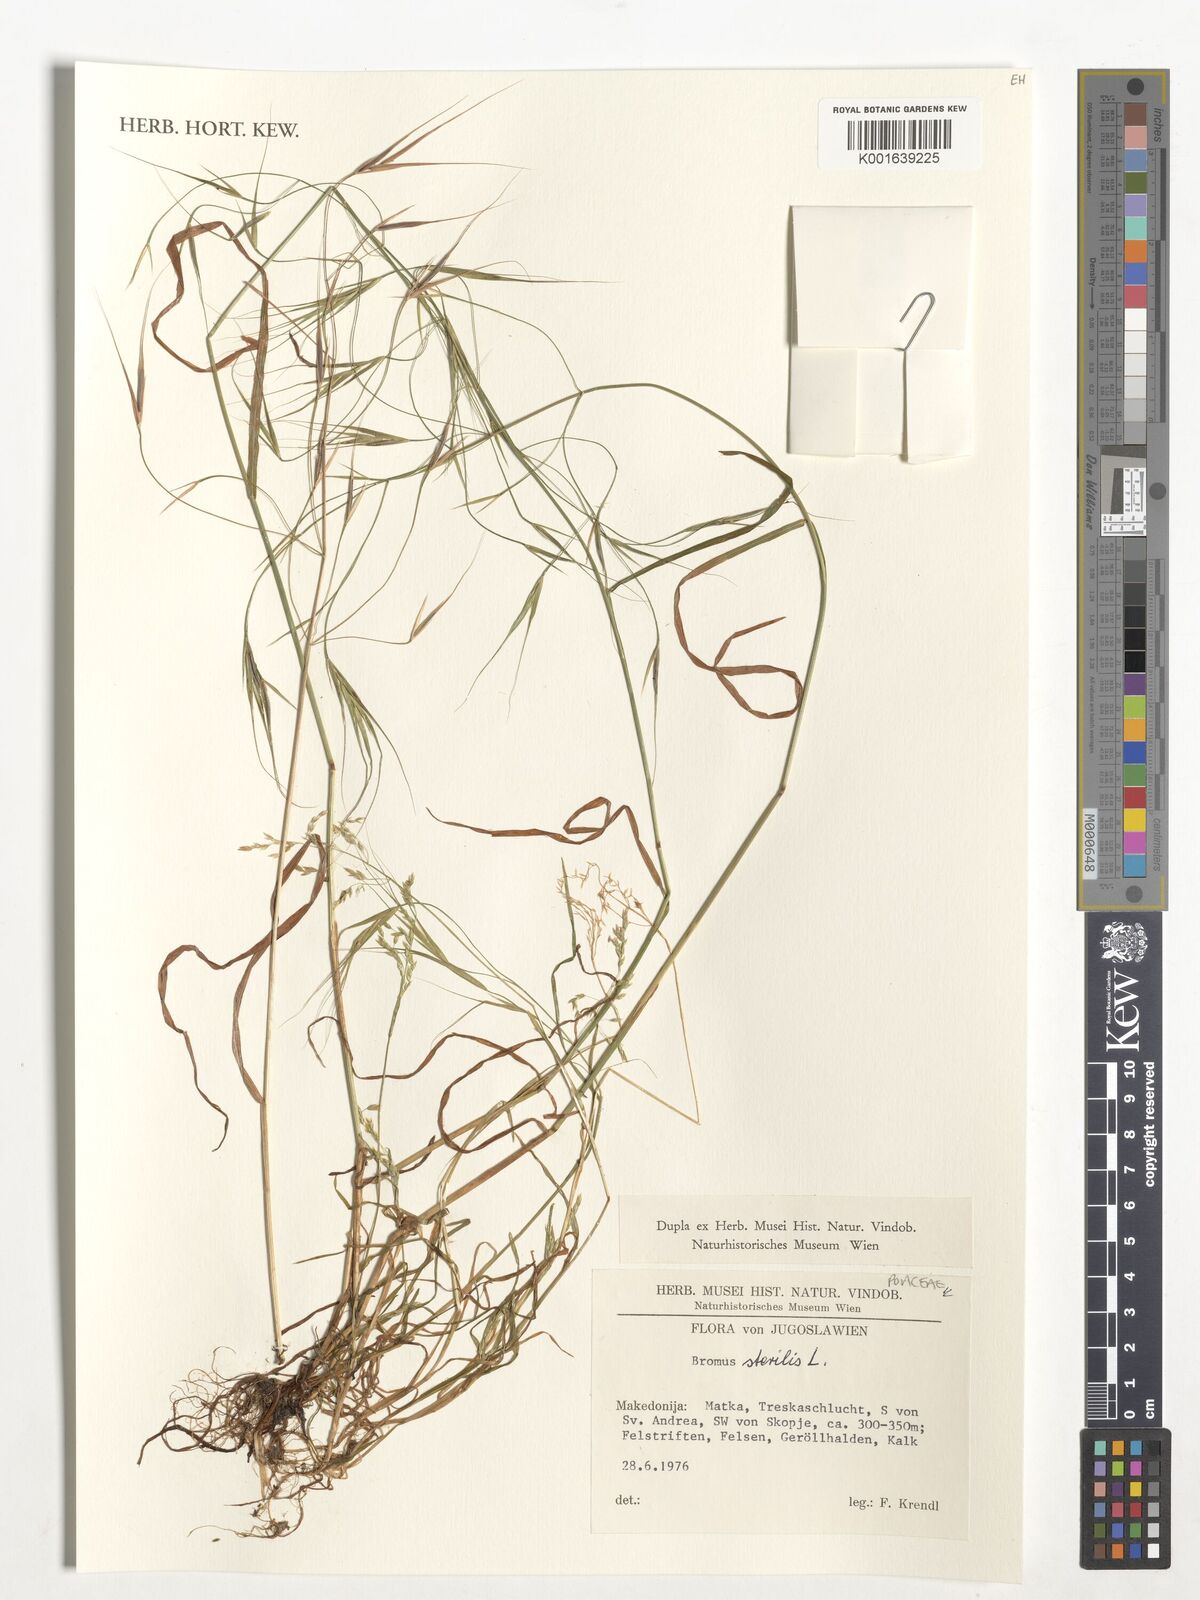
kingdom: Plantae
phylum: Tracheophyta
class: Liliopsida
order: Poales
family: Poaceae
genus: Bromus
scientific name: Bromus sterilis
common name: Poverty brome
